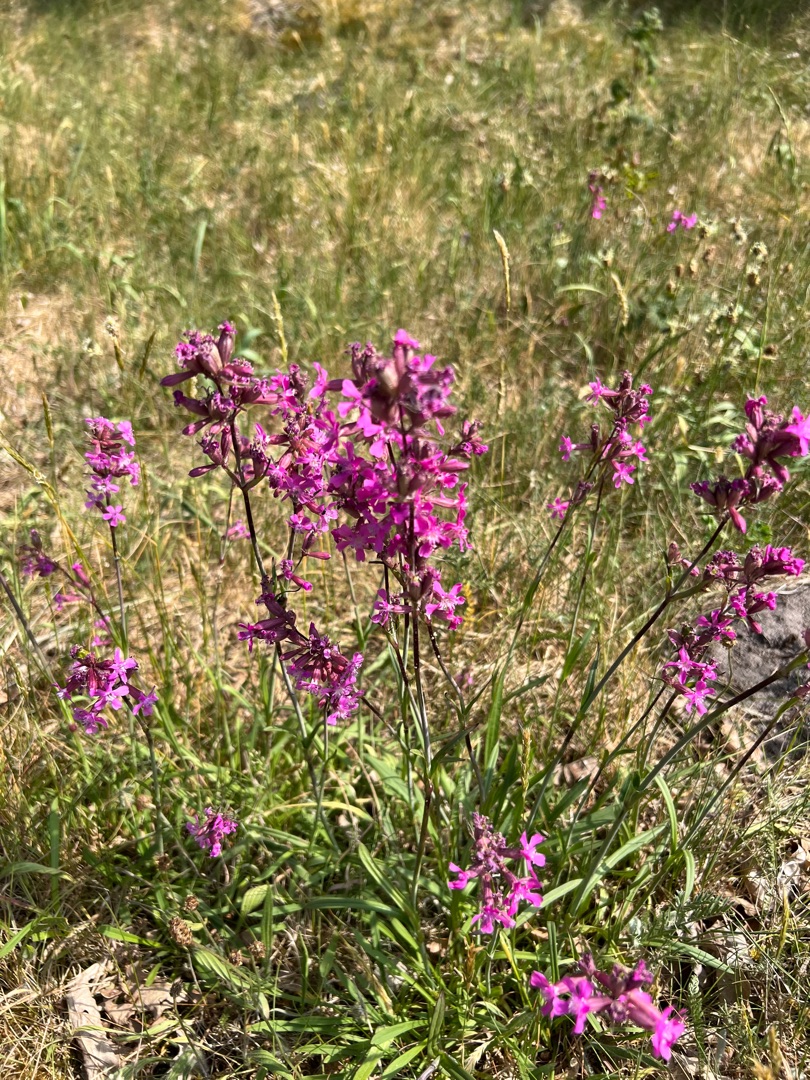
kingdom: Plantae
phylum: Tracheophyta
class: Magnoliopsida
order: Caryophyllales
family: Caryophyllaceae
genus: Viscaria
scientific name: Viscaria vulgaris
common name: Tjærenellike
